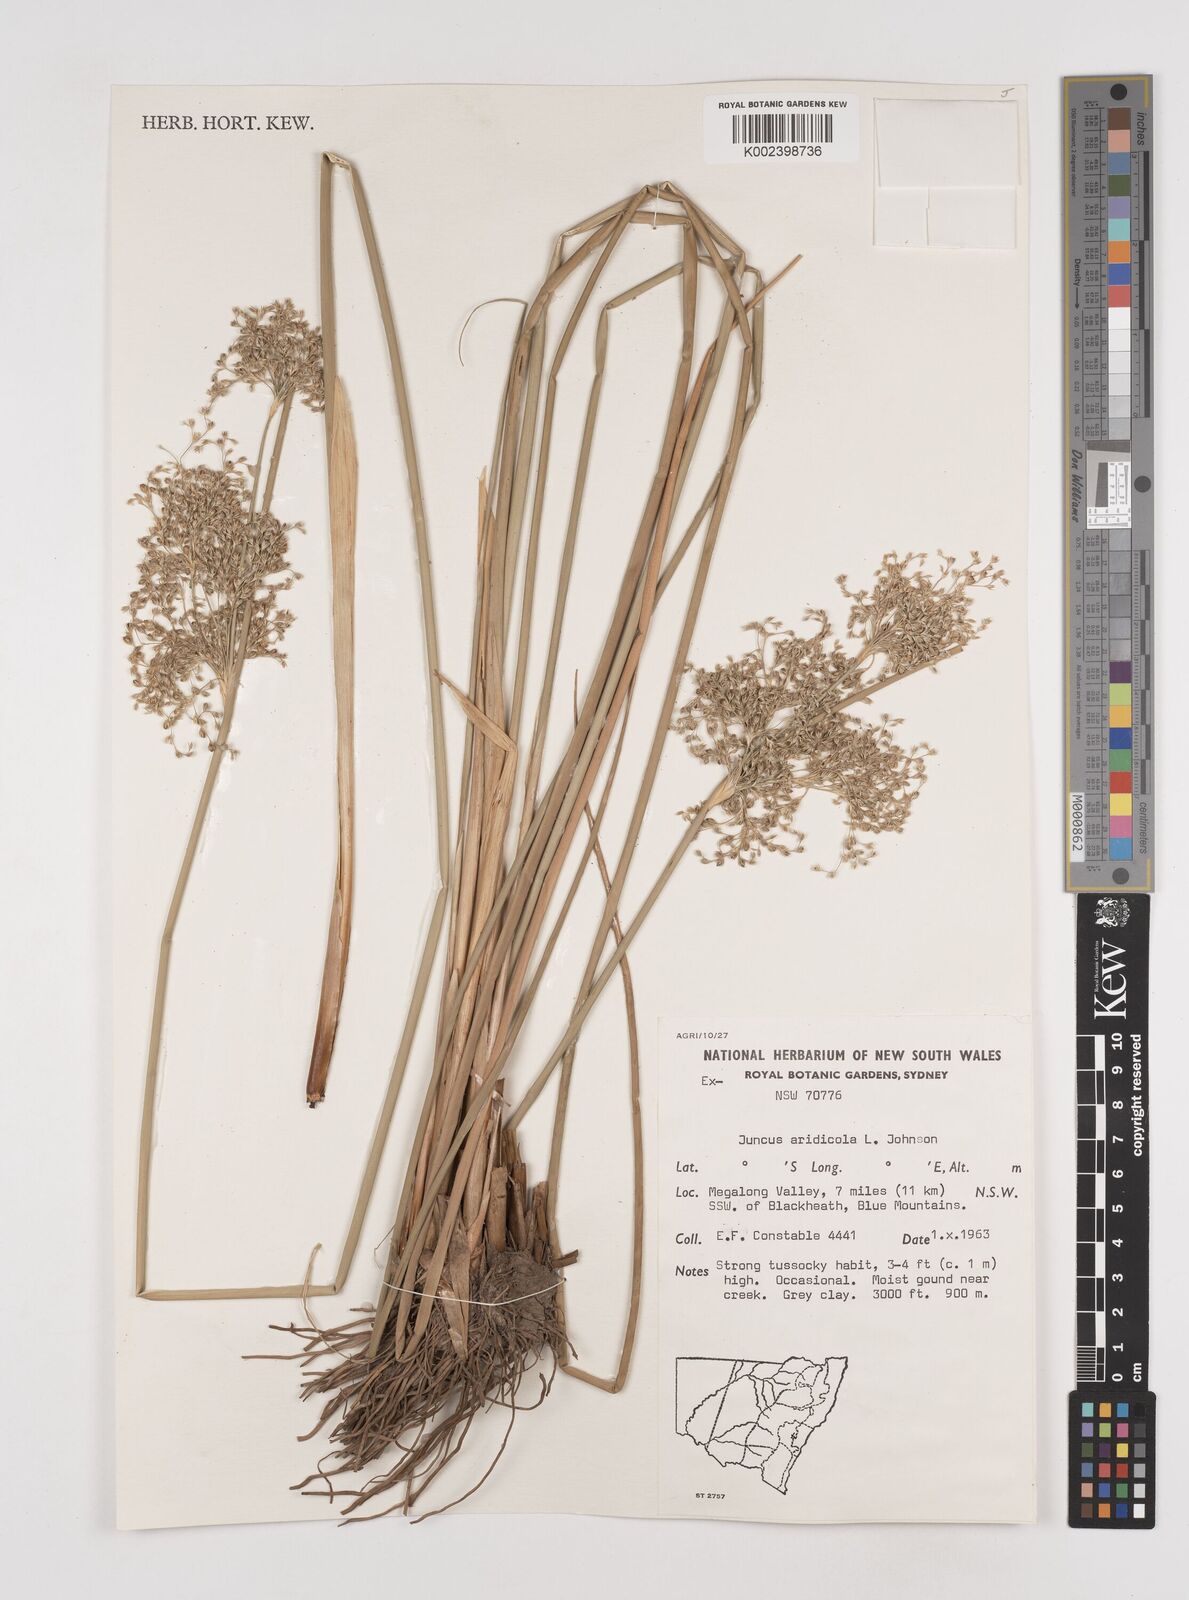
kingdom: Plantae
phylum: Tracheophyta
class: Liliopsida
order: Poales
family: Juncaceae
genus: Juncus
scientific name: Juncus aridicola
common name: Tussock rush
